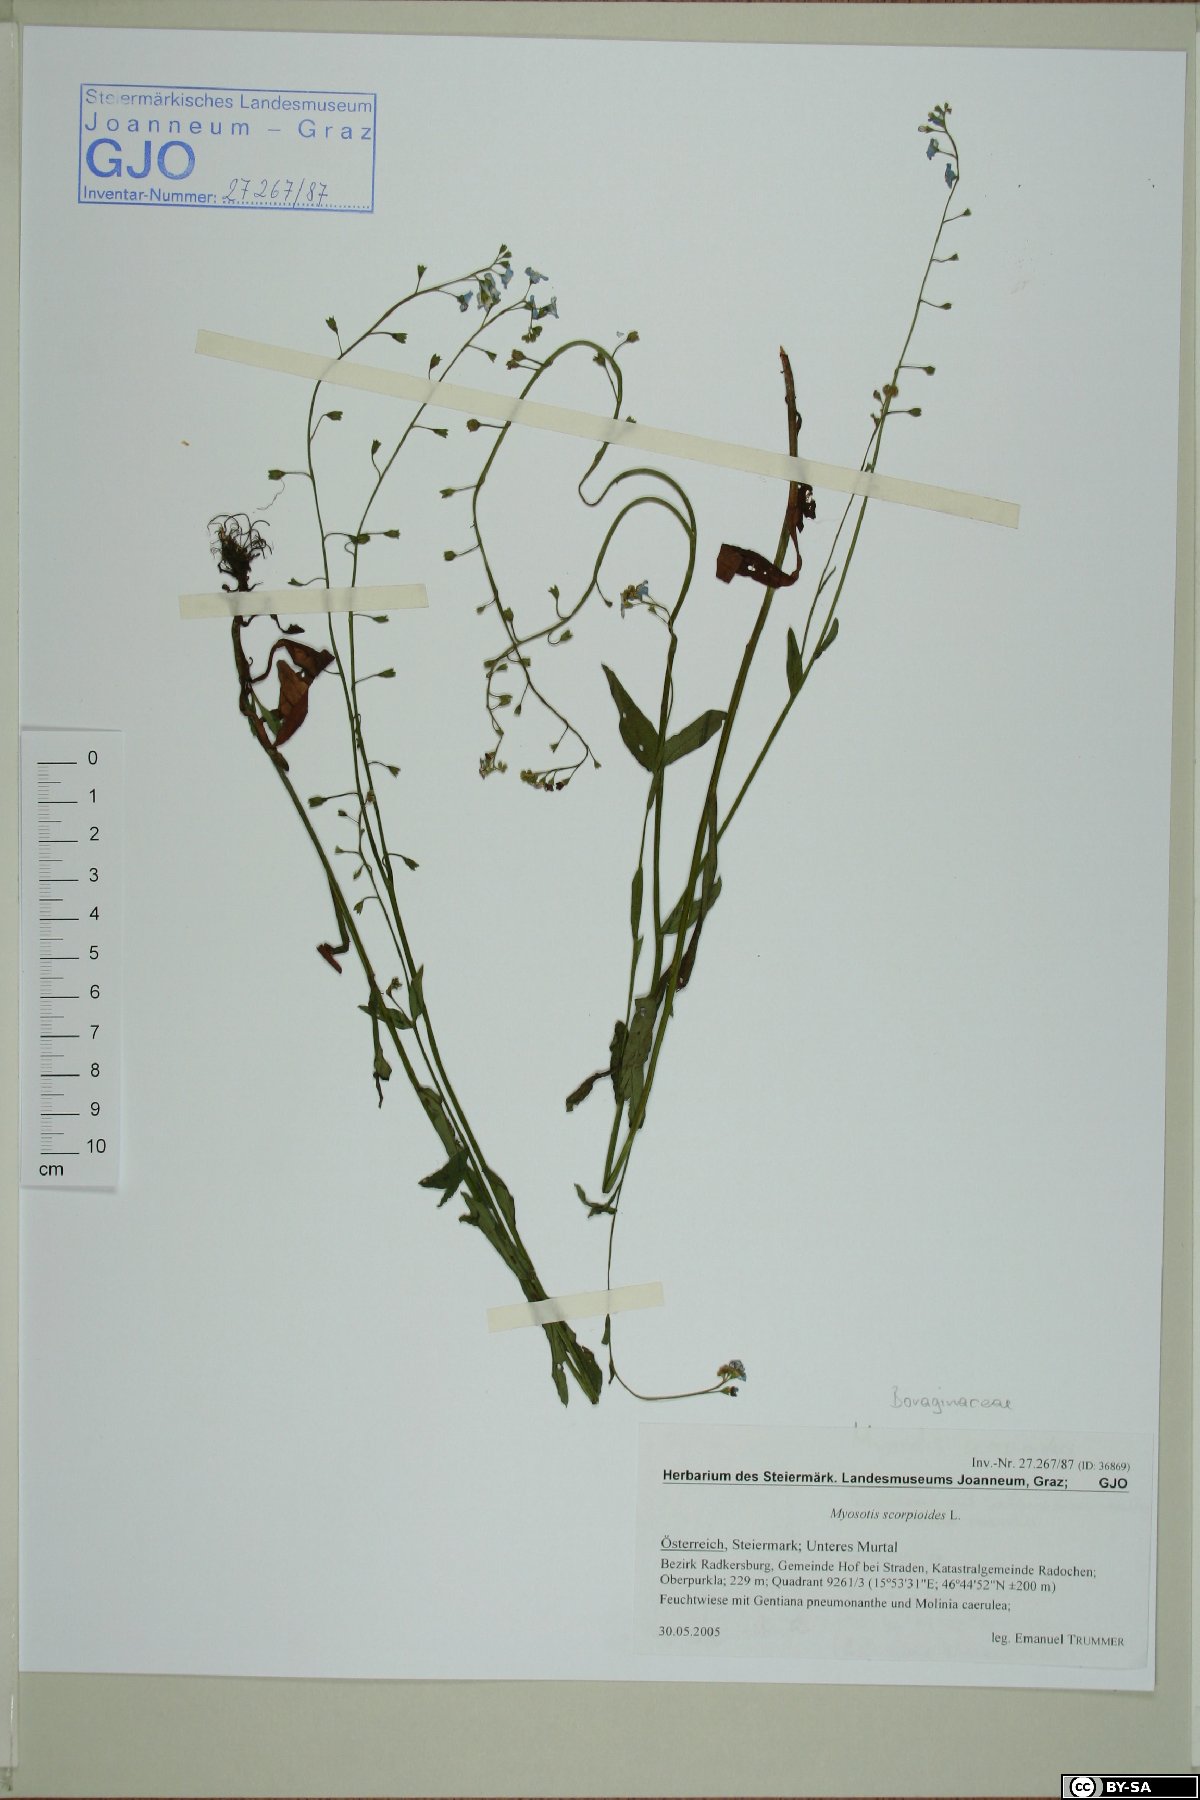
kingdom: Plantae
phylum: Tracheophyta
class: Magnoliopsida
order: Boraginales
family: Boraginaceae
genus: Myosotis
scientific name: Myosotis scorpioides
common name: Water forget-me-not
